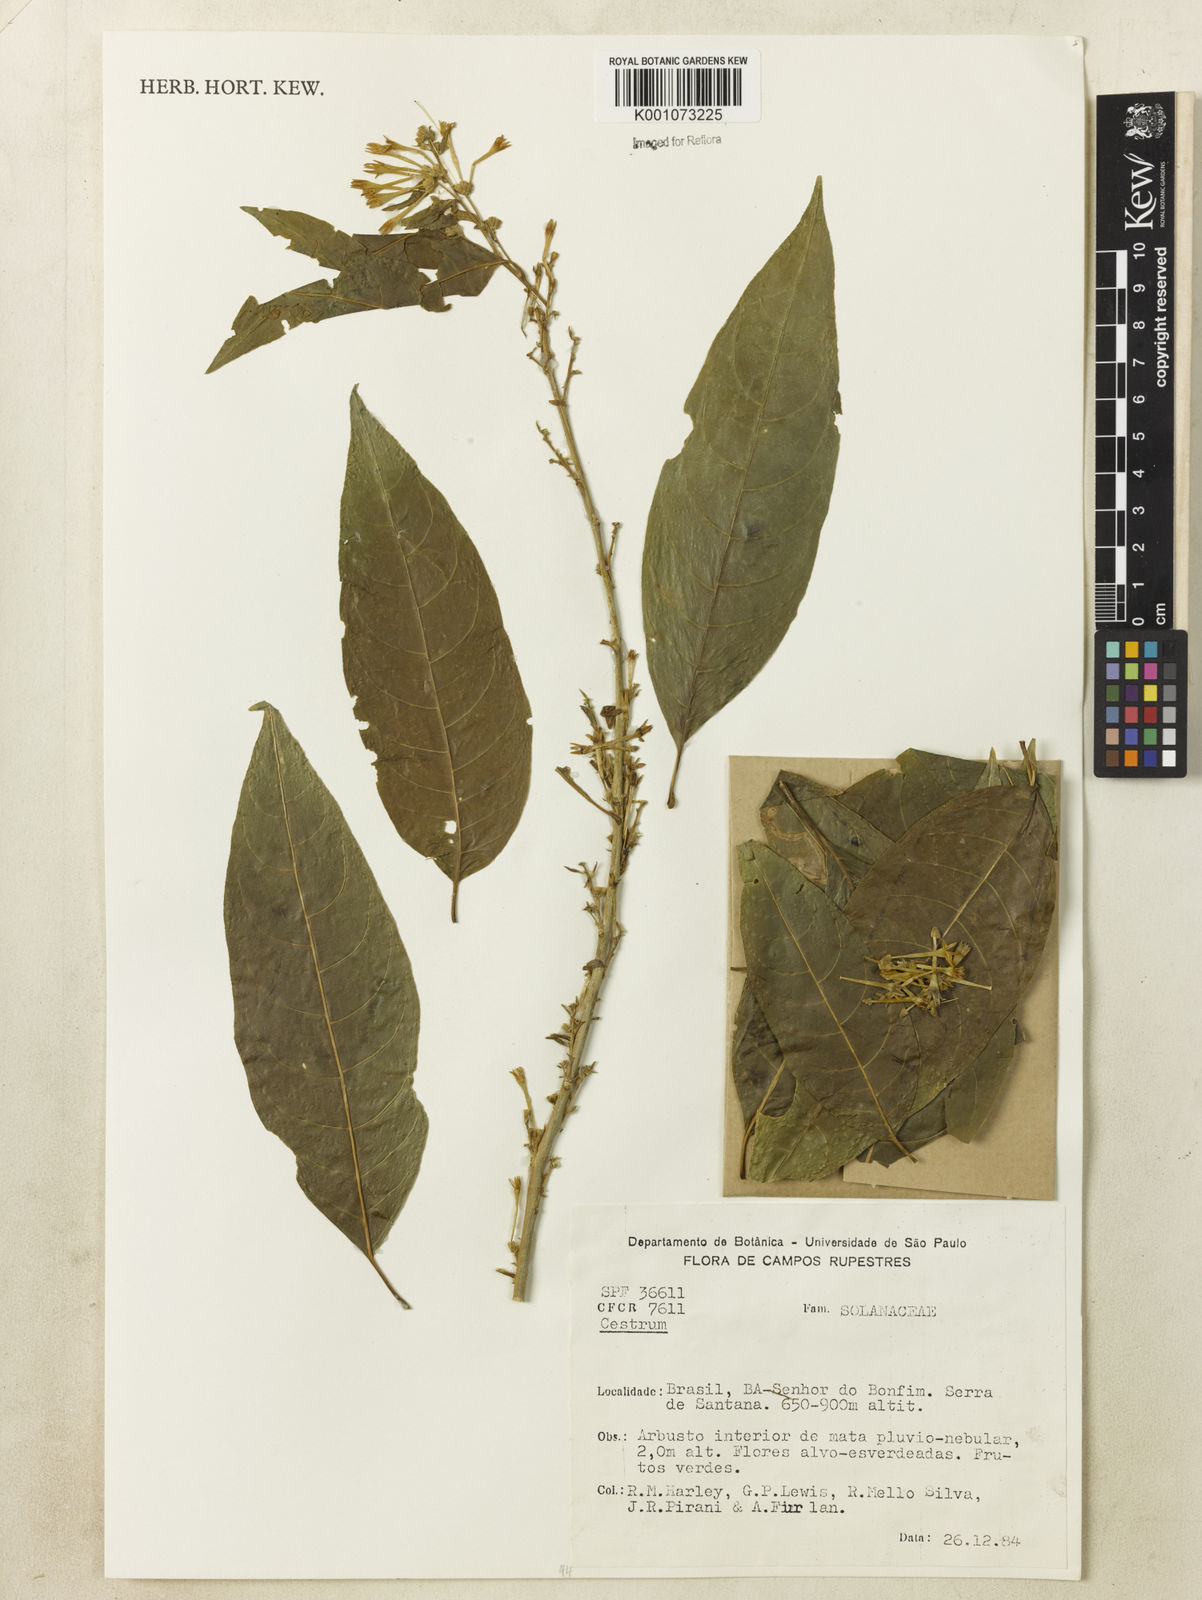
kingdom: Plantae
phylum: Tracheophyta
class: Magnoliopsida
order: Solanales
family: Solanaceae
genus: Cestrum
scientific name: Cestrum
